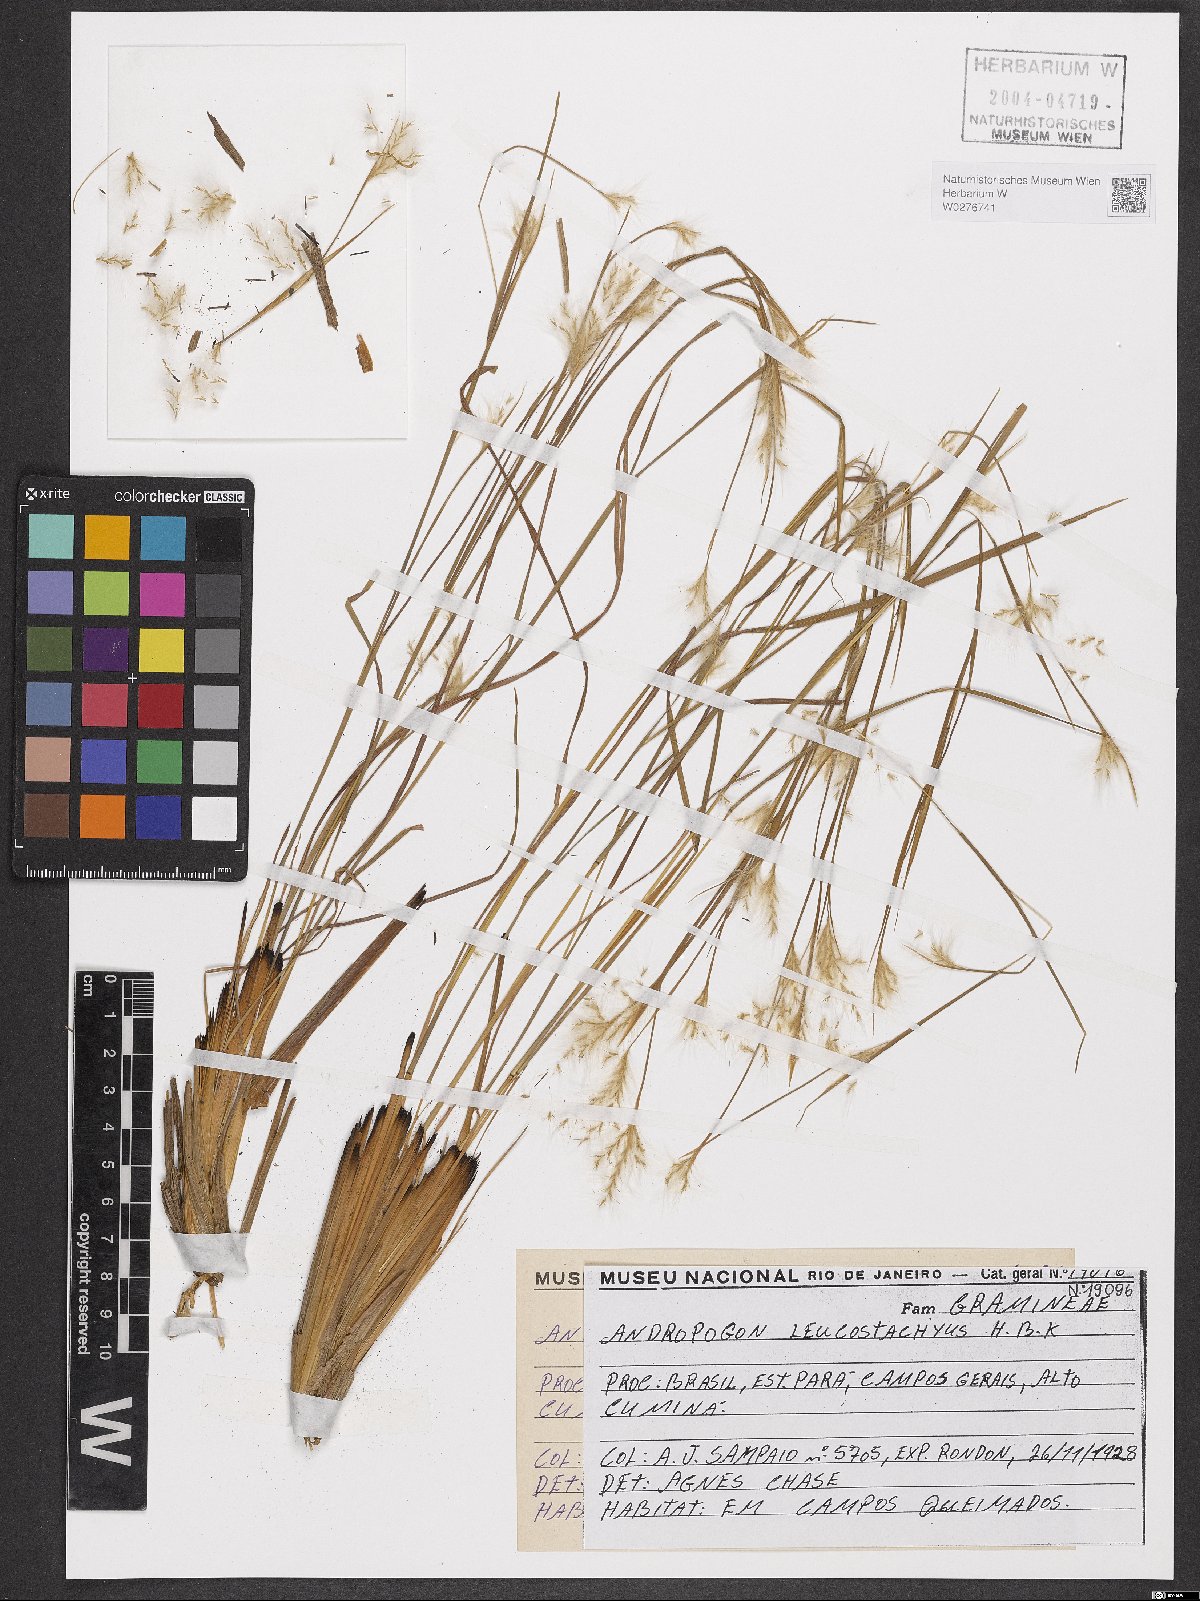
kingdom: Plantae
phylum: Tracheophyta
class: Liliopsida
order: Poales
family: Poaceae
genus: Andropogon
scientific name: Andropogon leucostachyus
